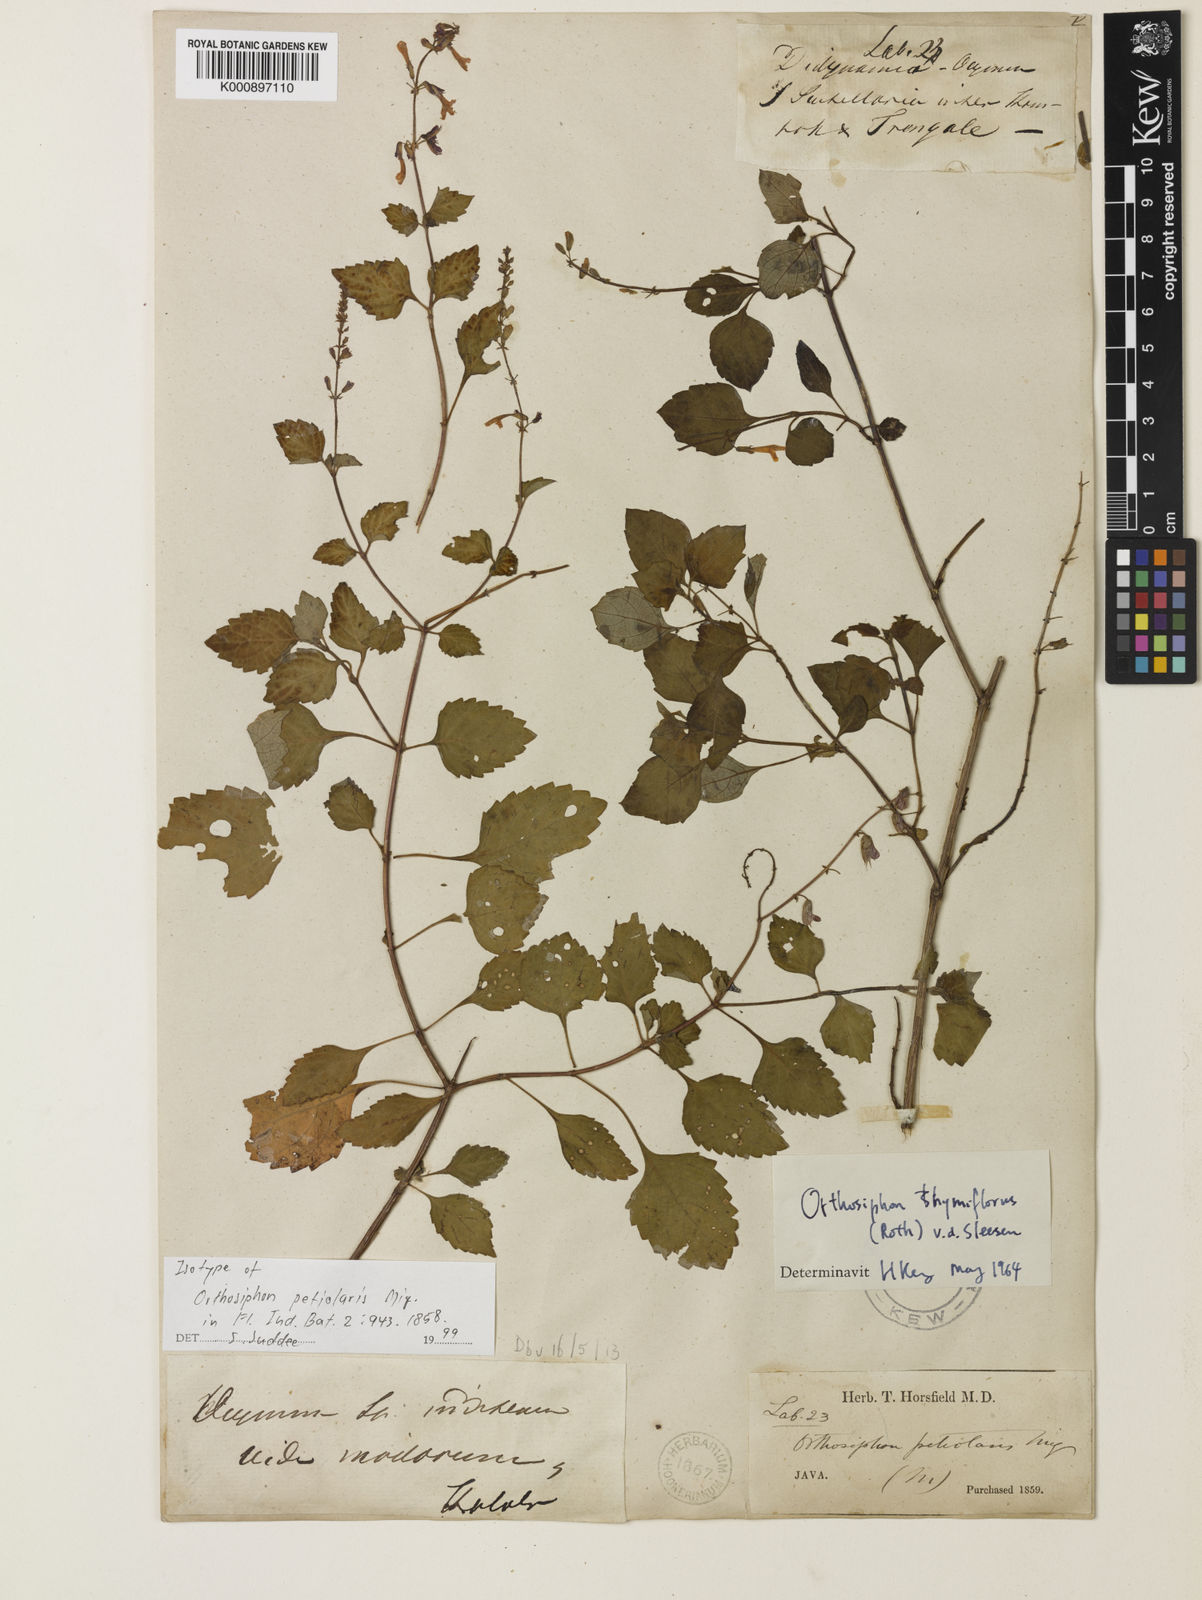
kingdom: Plantae
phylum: Tracheophyta
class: Magnoliopsida
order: Lamiales
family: Lamiaceae
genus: Orthosiphon
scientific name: Orthosiphon thymiflorus
